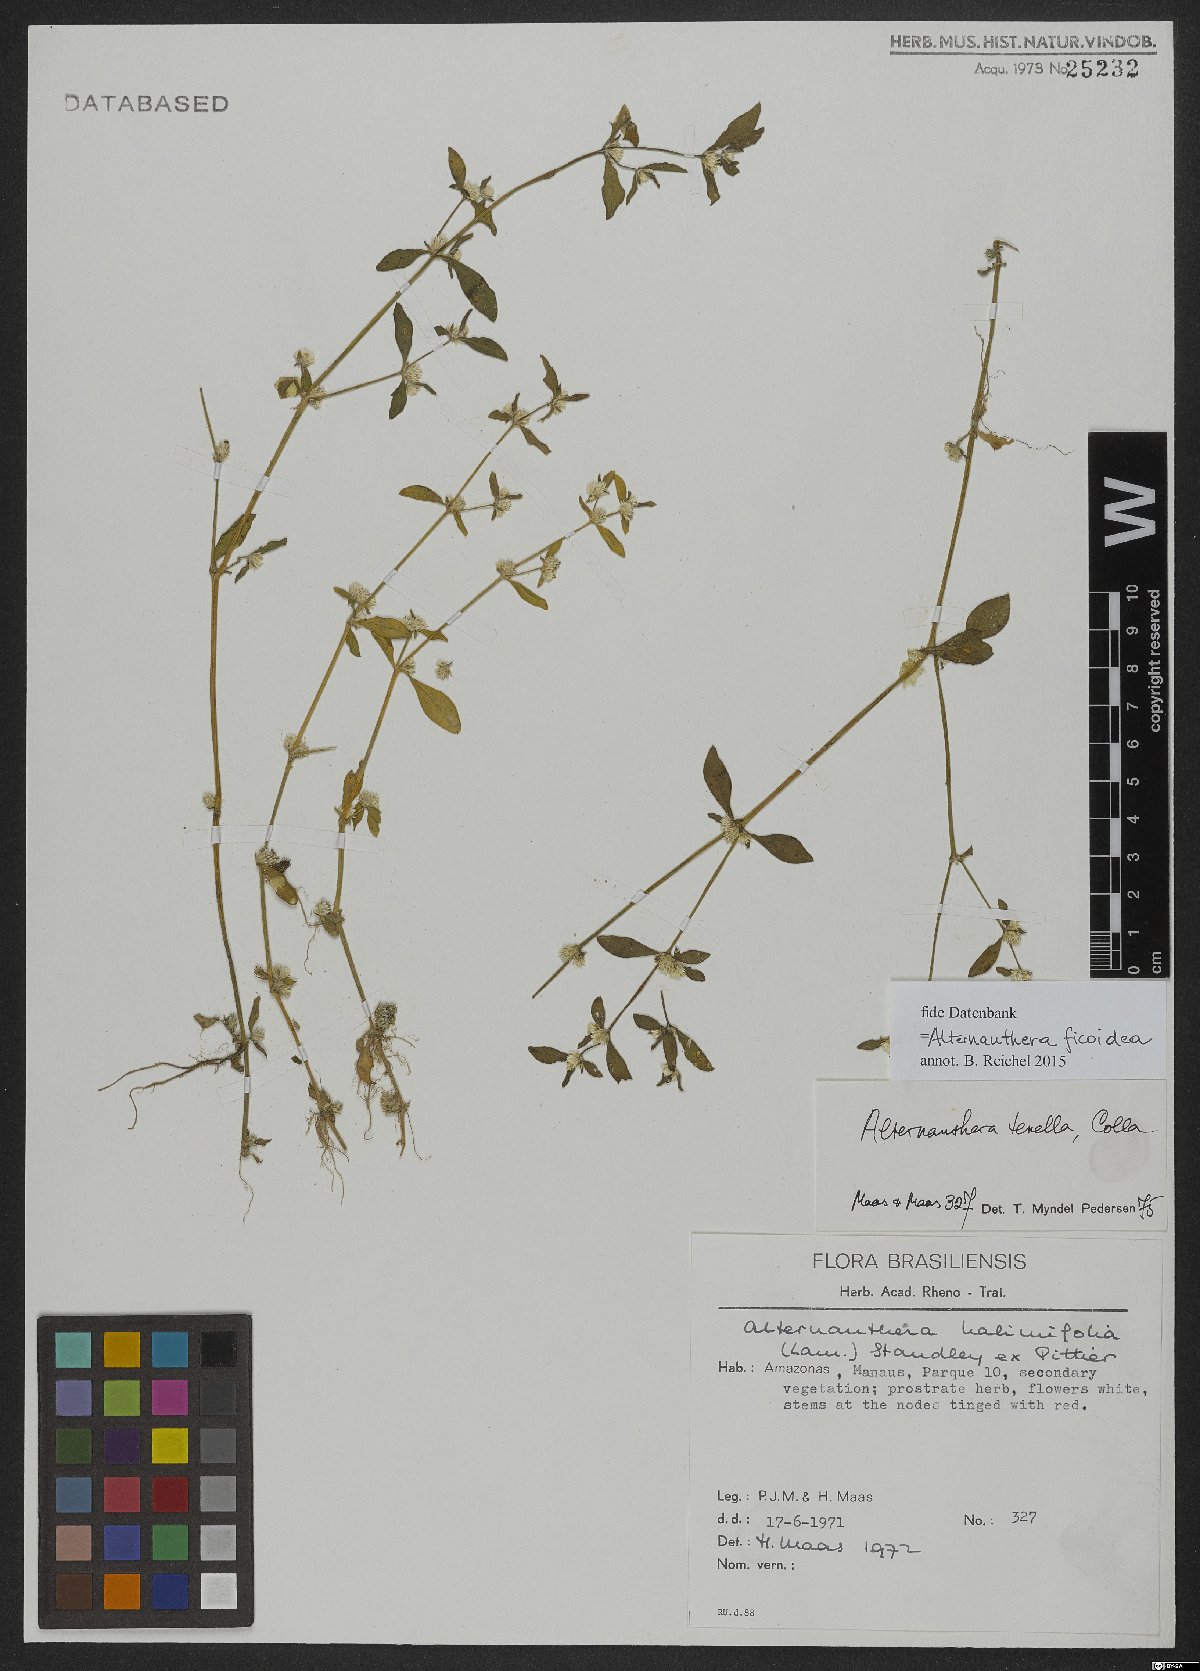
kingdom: Plantae
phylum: Tracheophyta
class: Magnoliopsida
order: Caryophyllales
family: Amaranthaceae
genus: Alternanthera
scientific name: Alternanthera ficoidea
